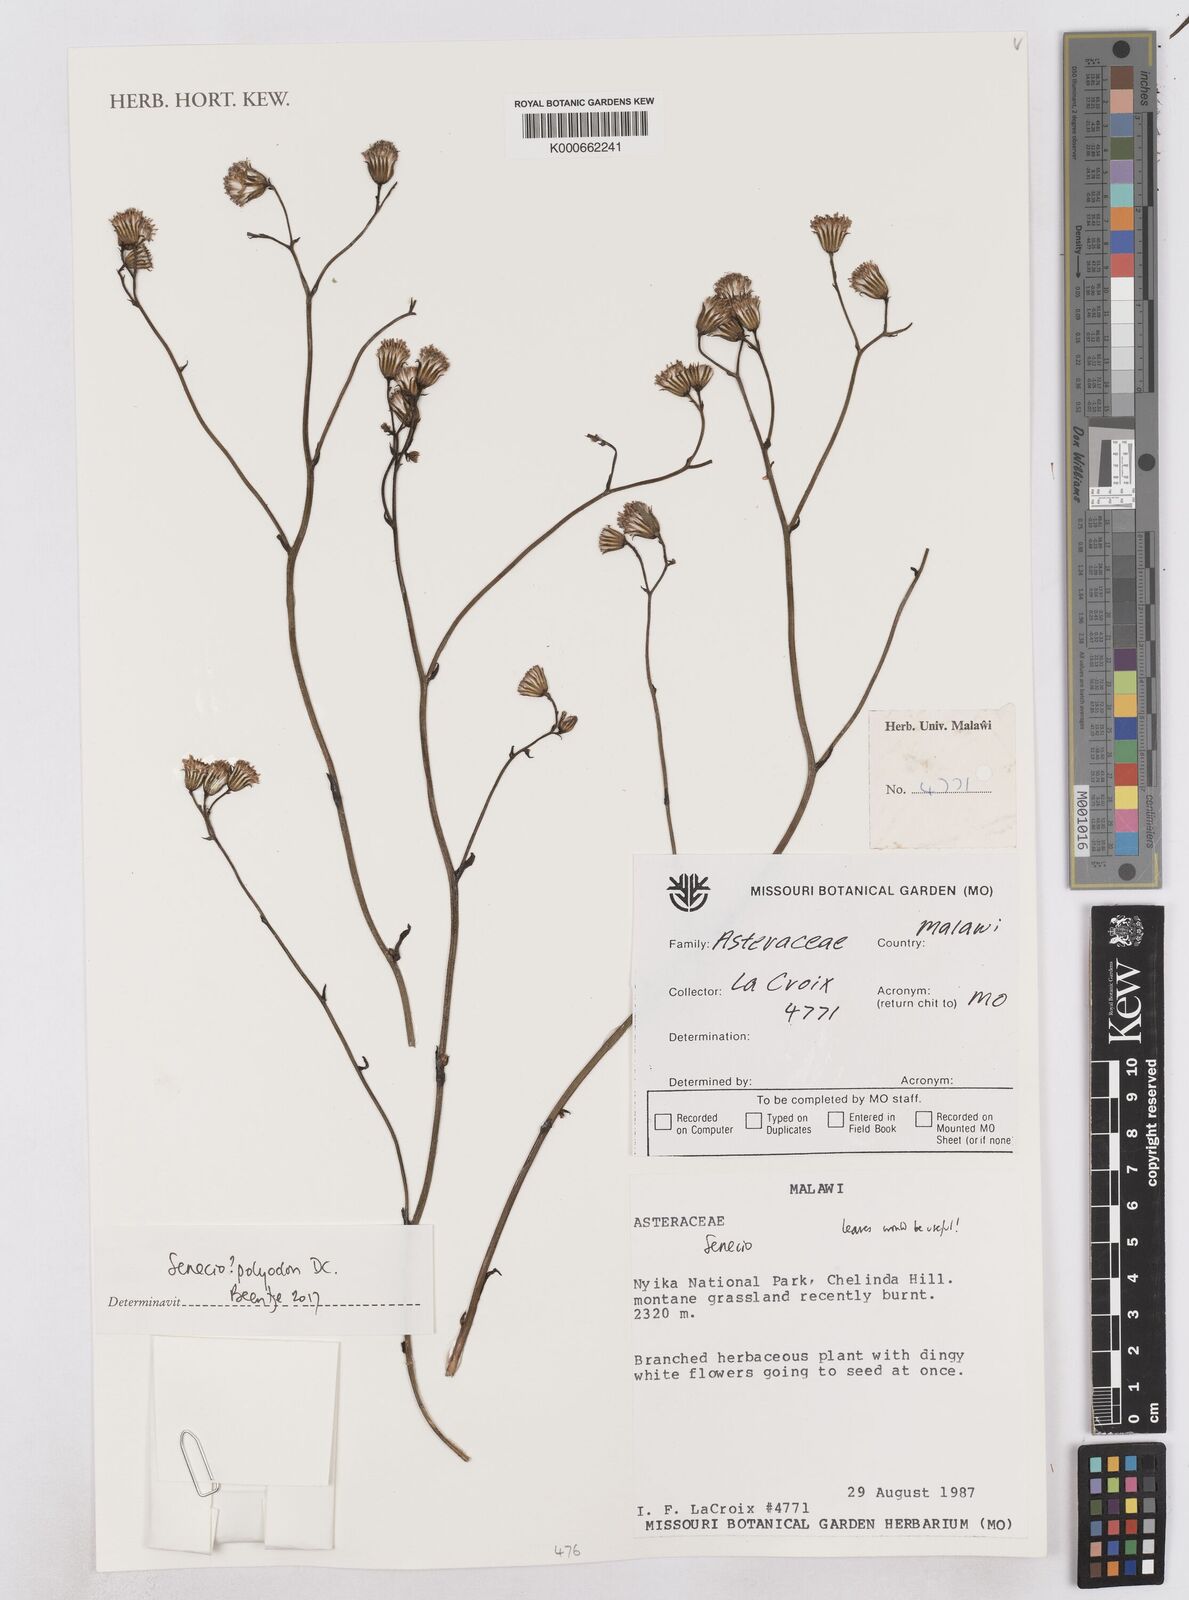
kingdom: Plantae
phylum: Tracheophyta
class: Magnoliopsida
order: Asterales
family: Asteraceae
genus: Senecio
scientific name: Senecio
